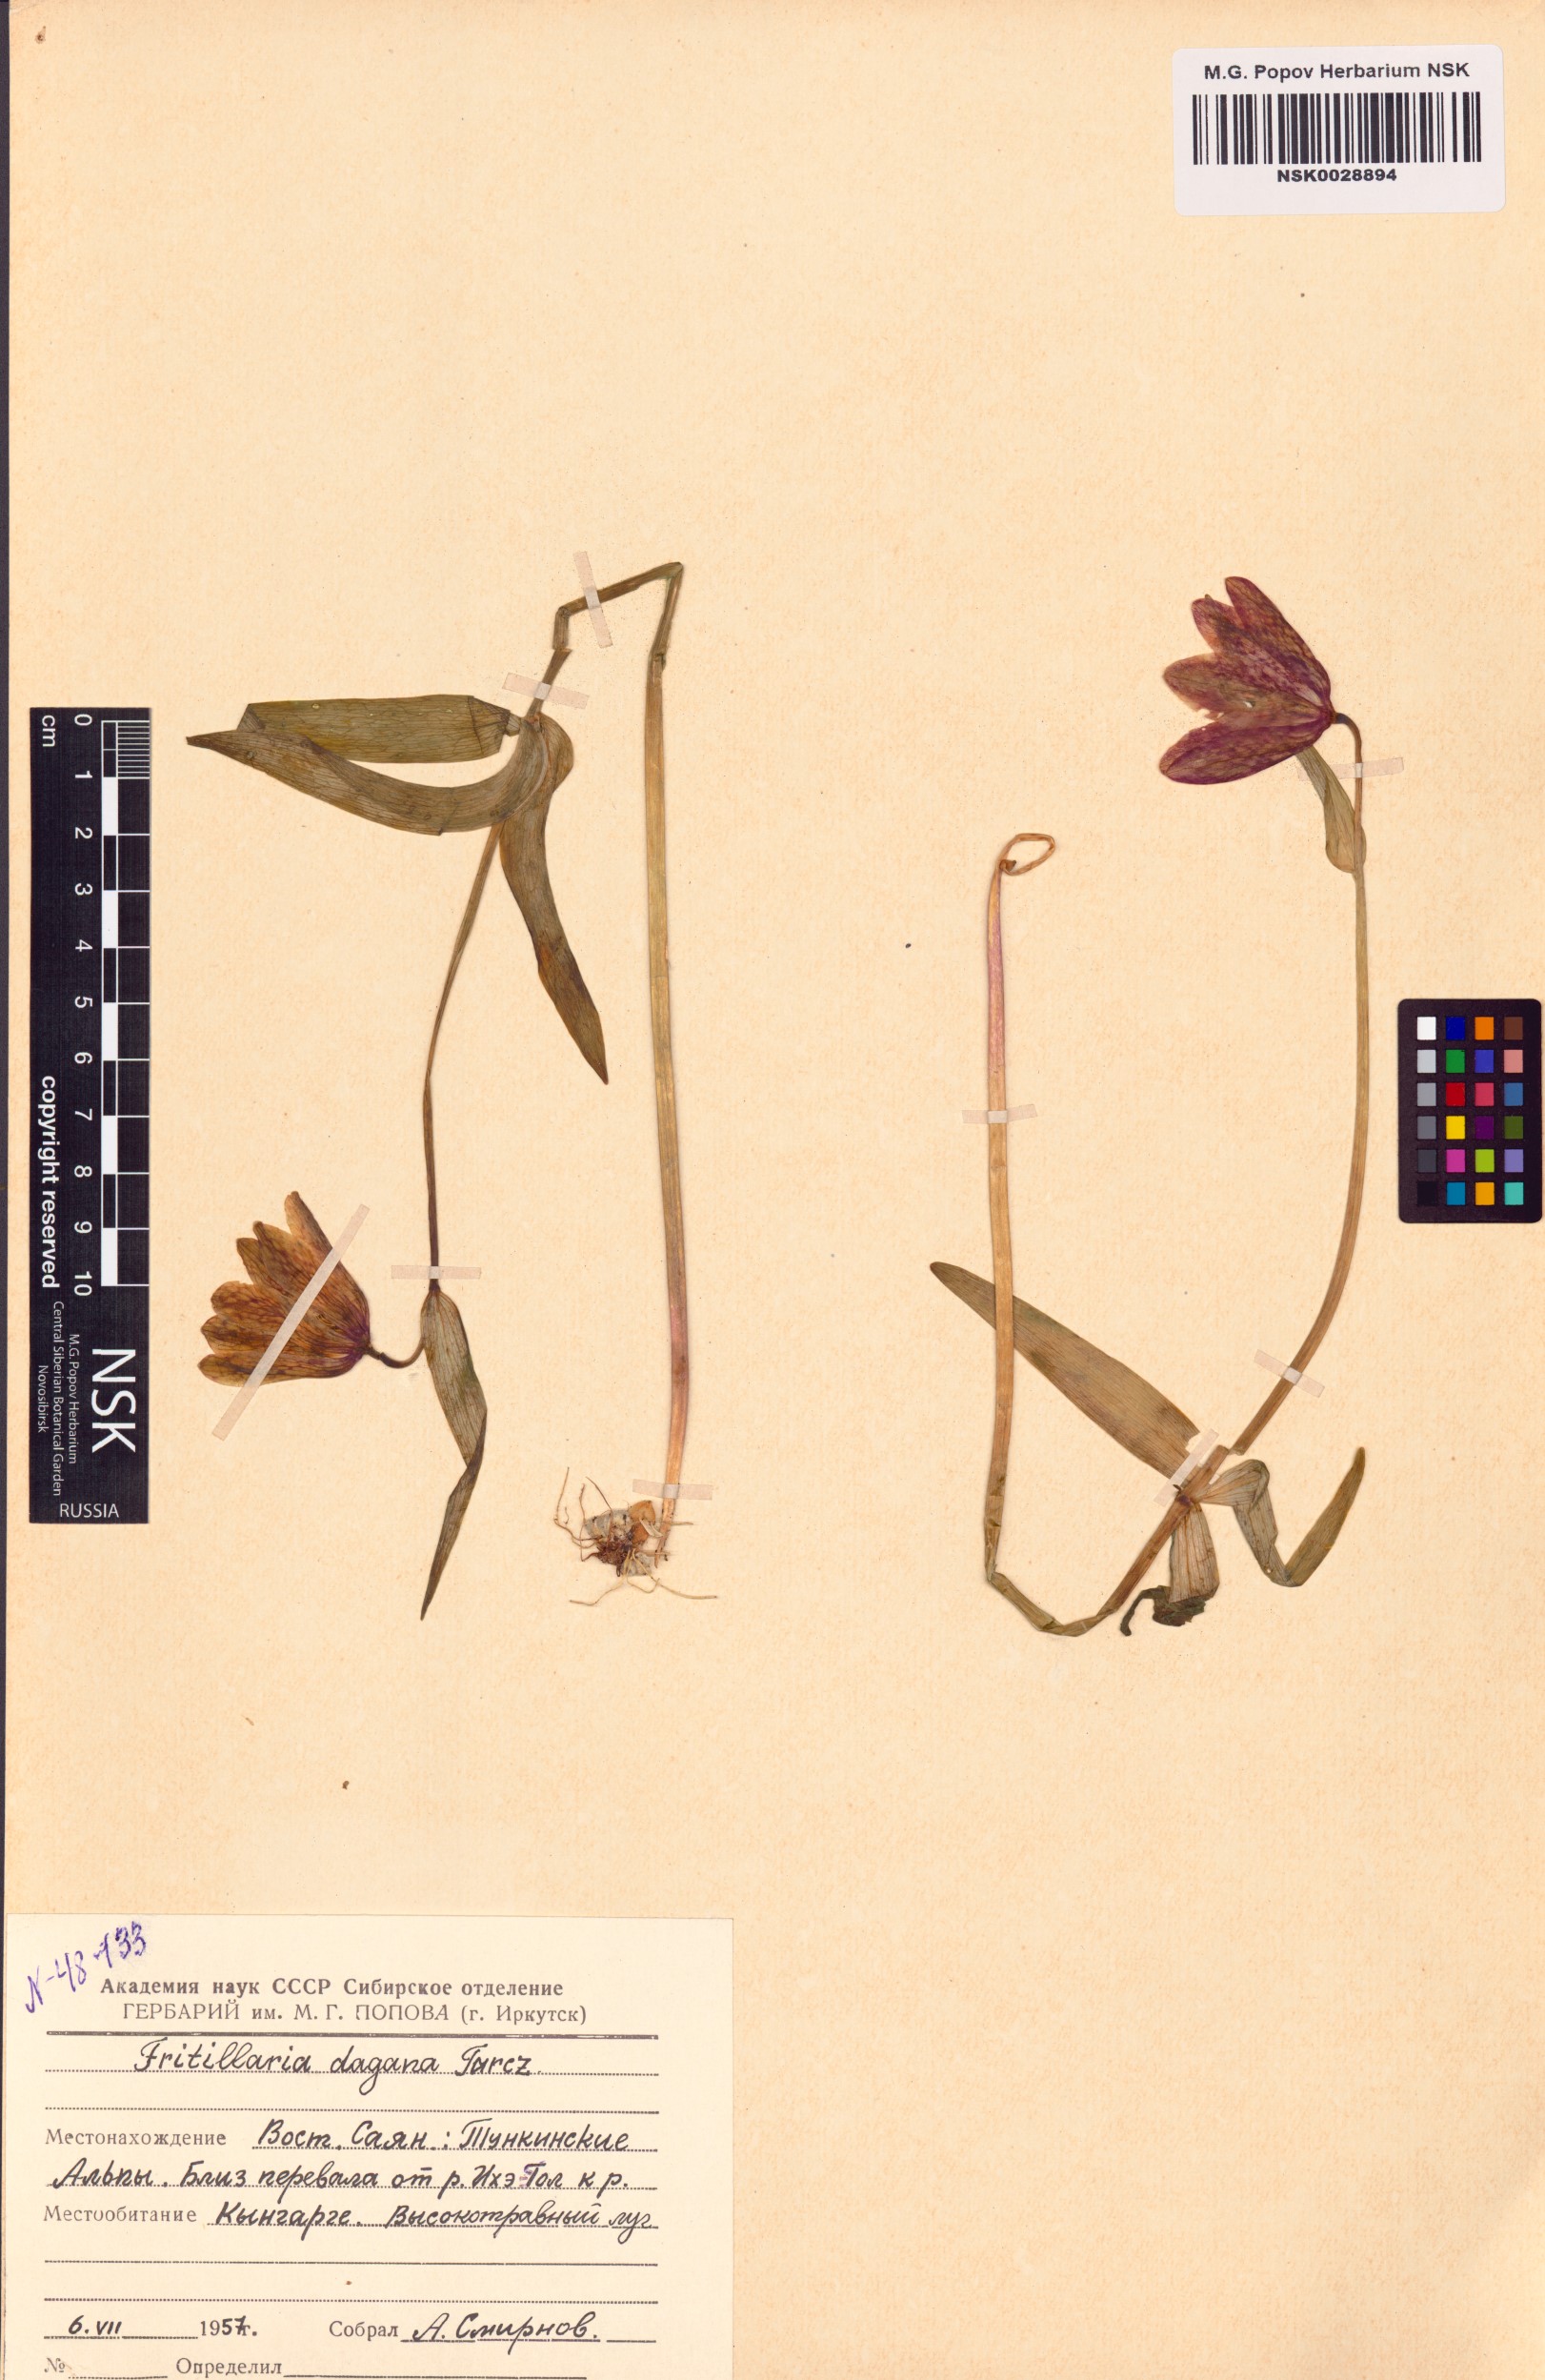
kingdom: Plantae
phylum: Tracheophyta
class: Liliopsida
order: Liliales
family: Liliaceae
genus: Fritillaria
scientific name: Fritillaria dagana
